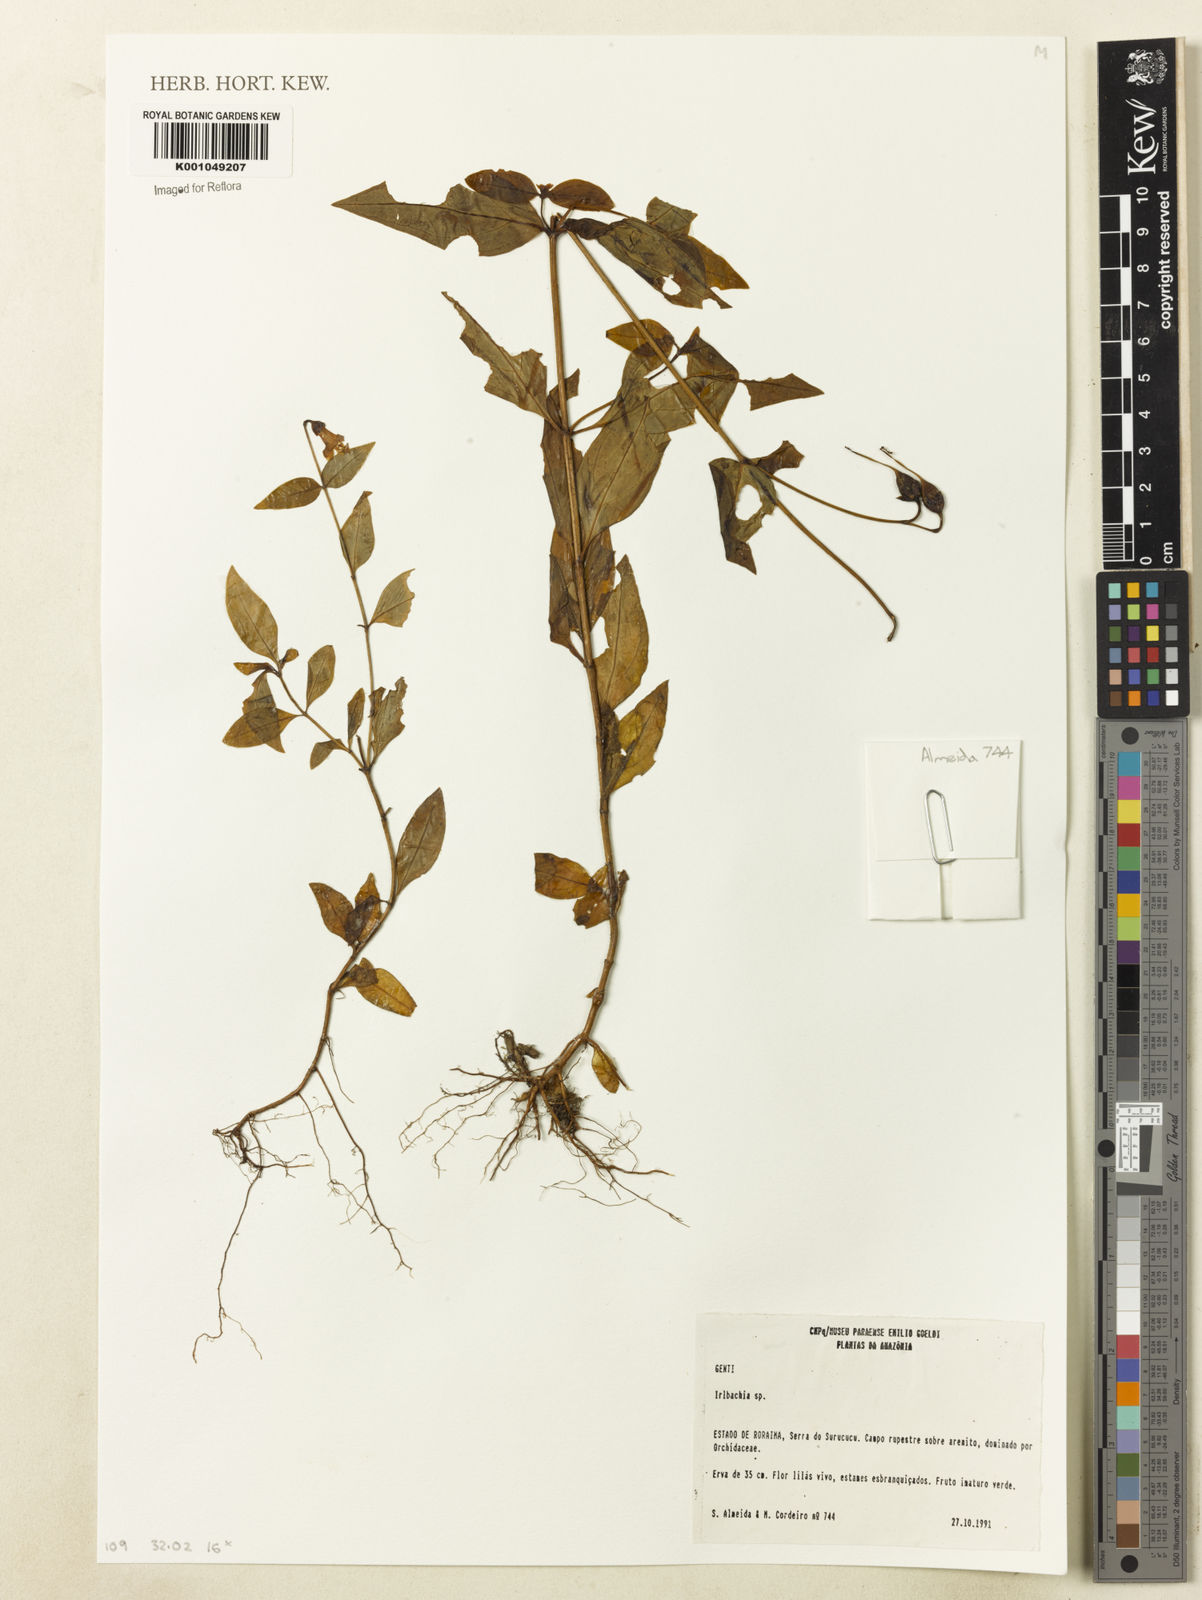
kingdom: Plantae
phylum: Tracheophyta
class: Magnoliopsida
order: Gentianales
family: Gentianaceae
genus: Irlbachia
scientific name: Irlbachia
